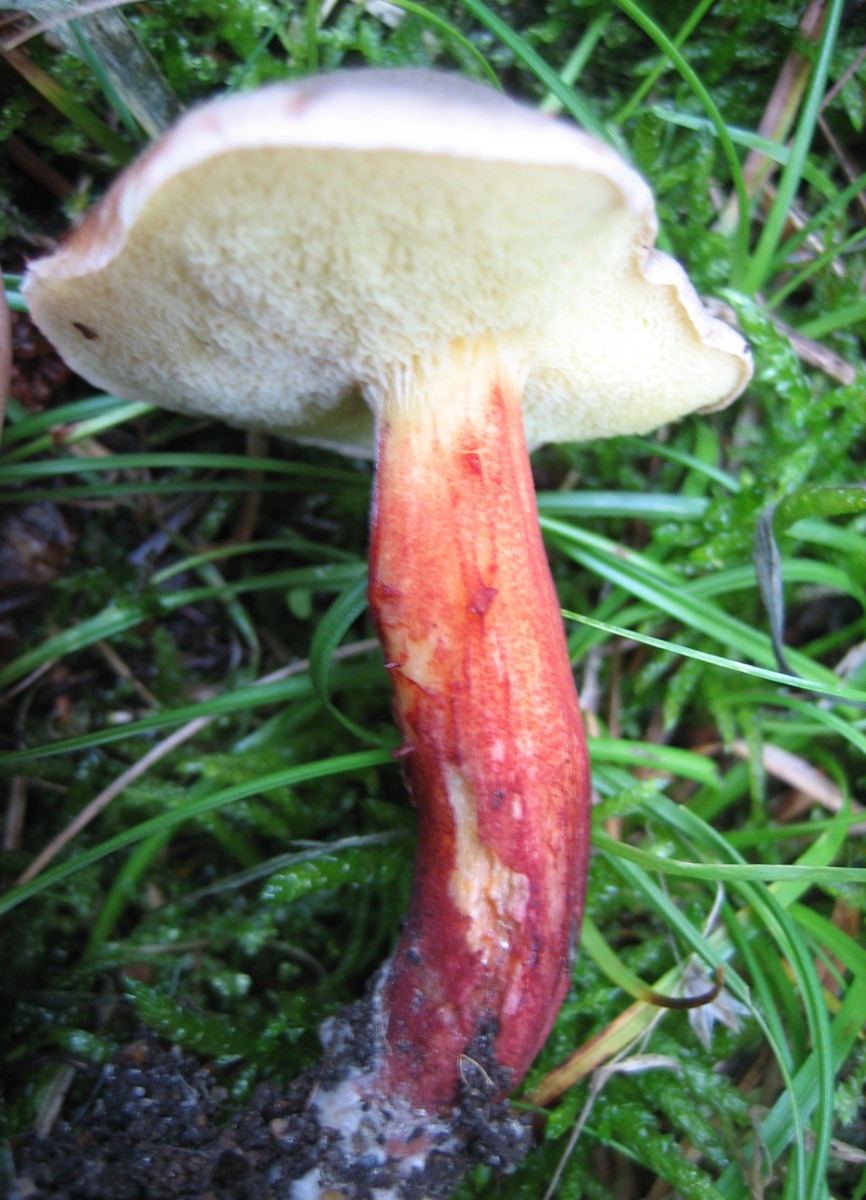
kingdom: Fungi
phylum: Basidiomycota
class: Agaricomycetes
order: Boletales
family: Boletaceae
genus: Xerocomellus
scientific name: Xerocomellus chrysenteron
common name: rødsprukken rørhat
